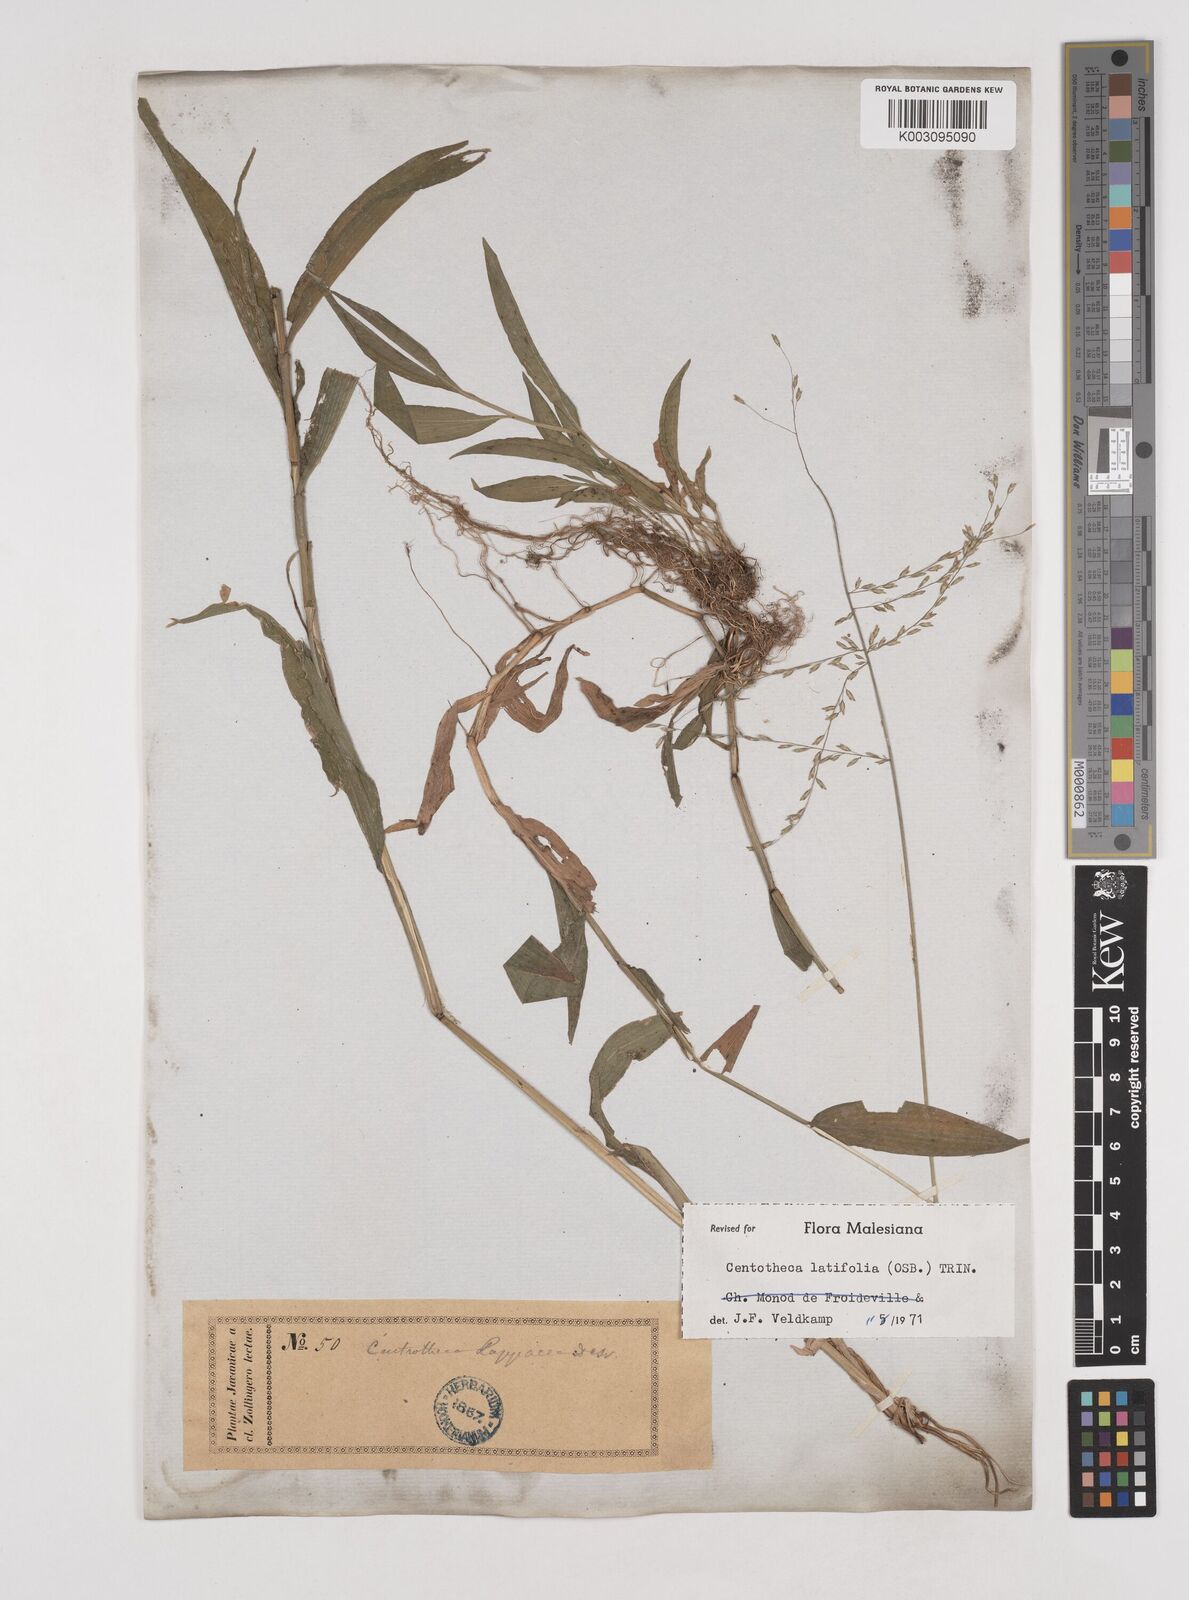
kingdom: Plantae
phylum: Tracheophyta
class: Liliopsida
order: Poales
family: Poaceae
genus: Centotheca
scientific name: Centotheca lappacea
